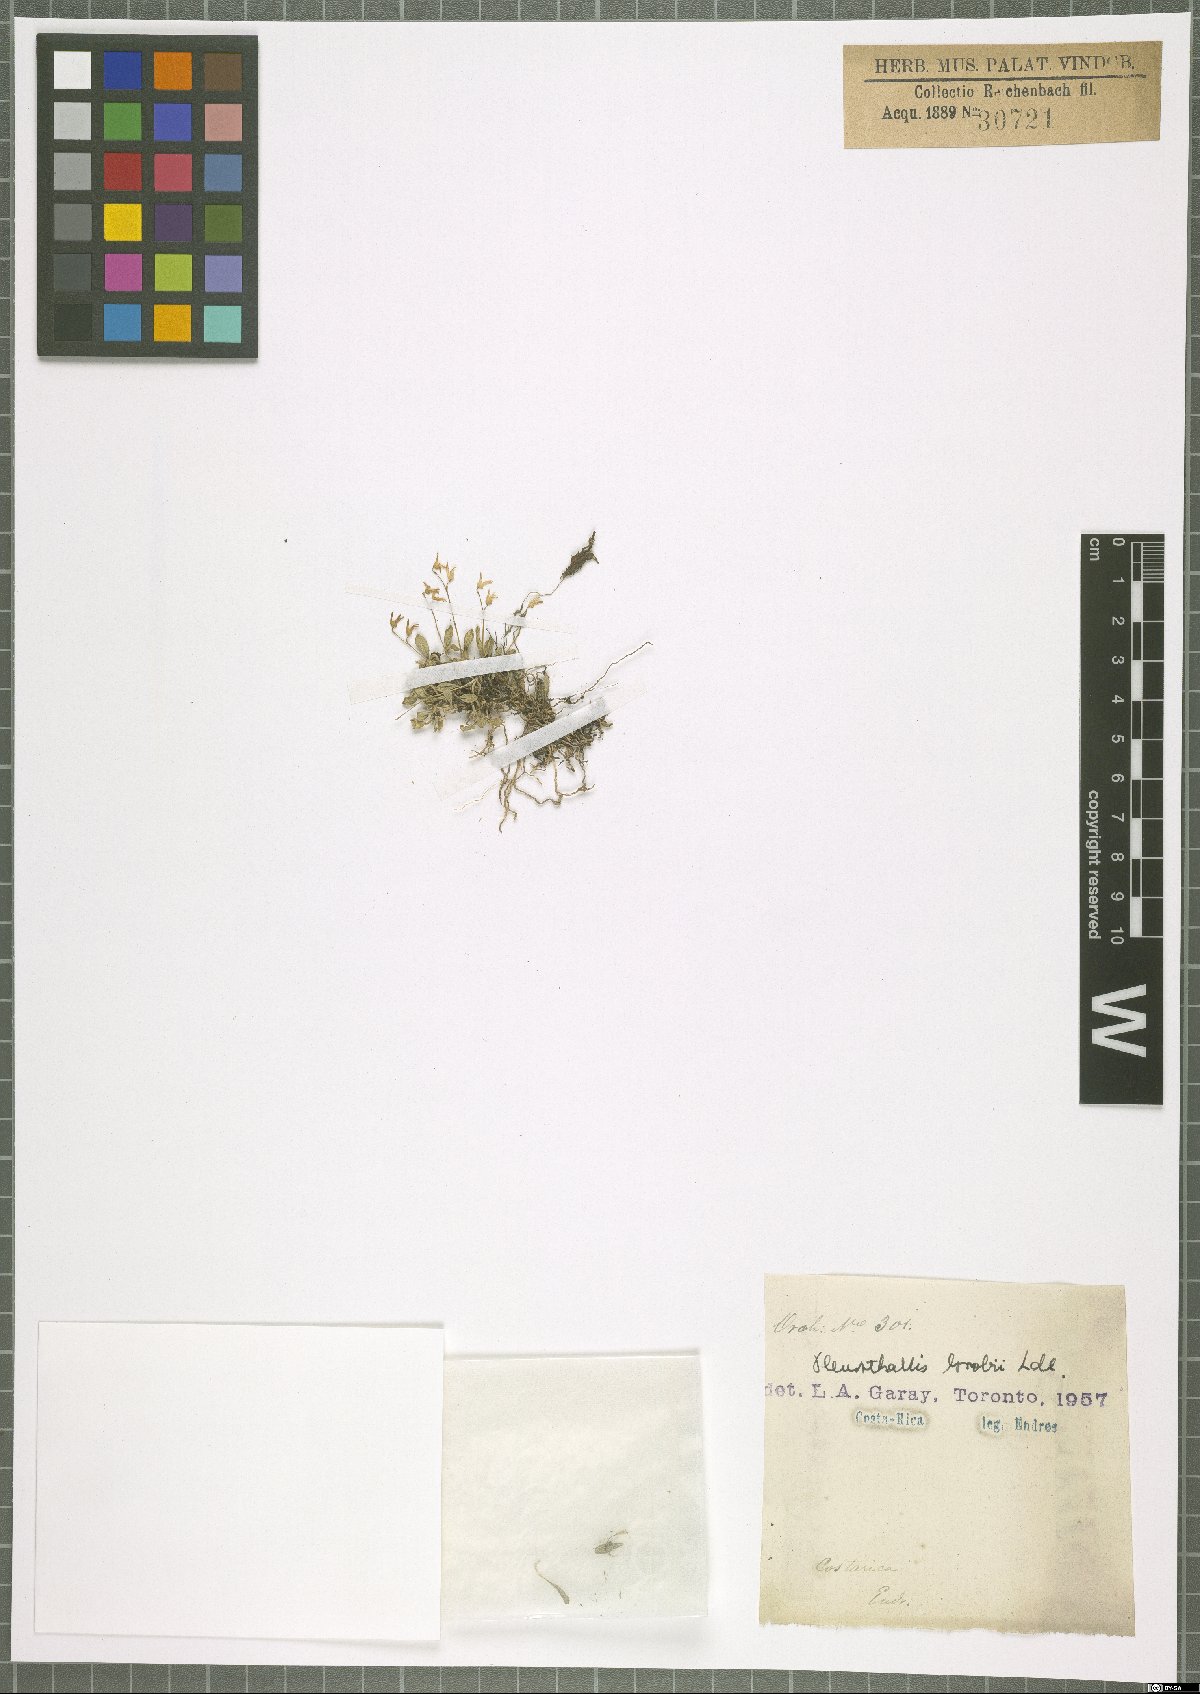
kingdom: Plantae
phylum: Tracheophyta
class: Liliopsida
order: Asparagales
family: Orchidaceae
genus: Specklinia
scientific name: Specklinia calyptrostele
